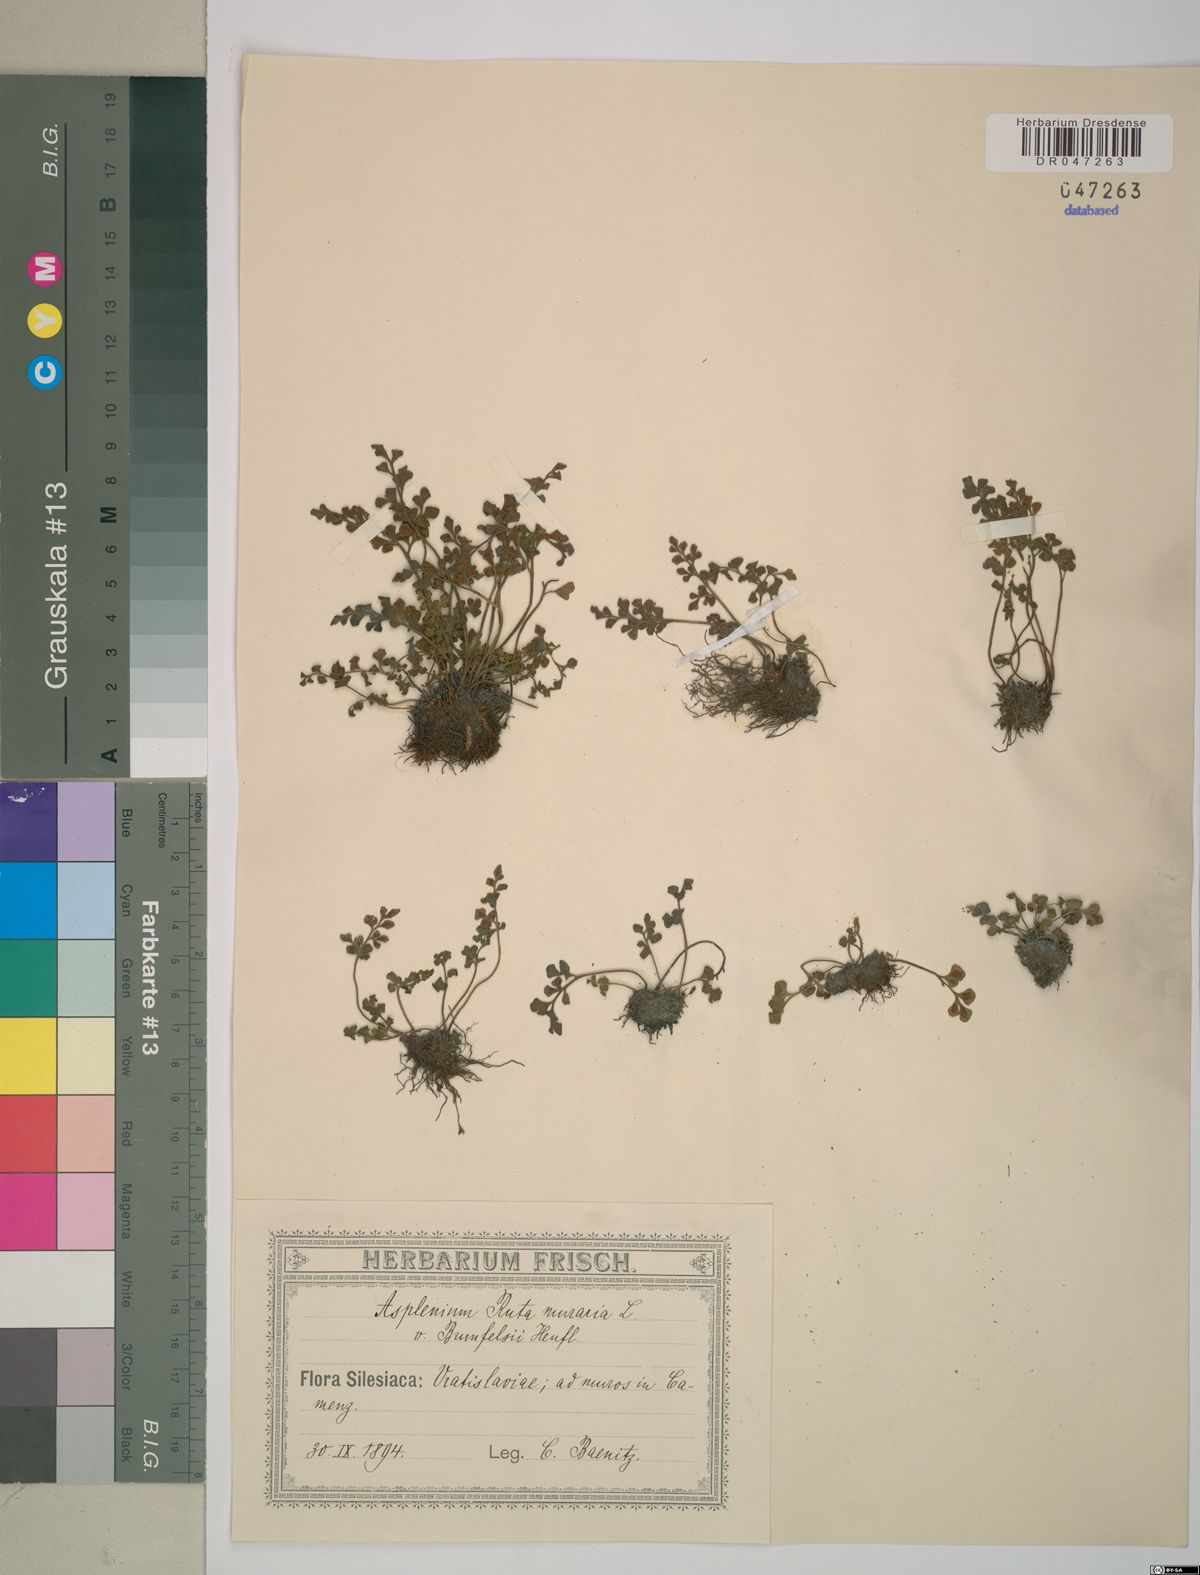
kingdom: Plantae
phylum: Tracheophyta
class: Polypodiopsida
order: Polypodiales
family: Aspleniaceae
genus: Asplenium
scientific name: Asplenium ruta-muraria
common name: Wall-rue
